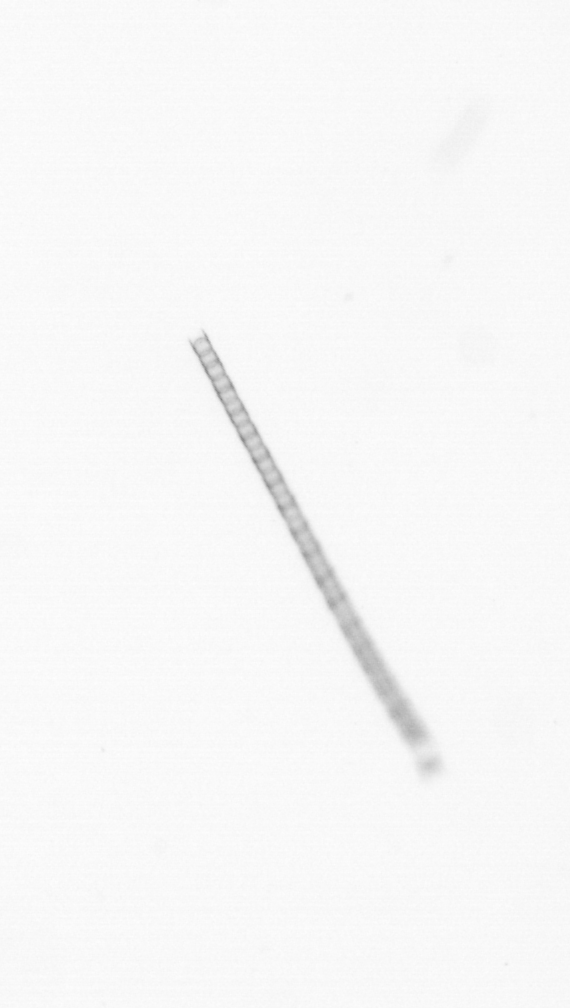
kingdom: Chromista
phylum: Ochrophyta
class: Bacillariophyceae
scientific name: Bacillariophyceae
